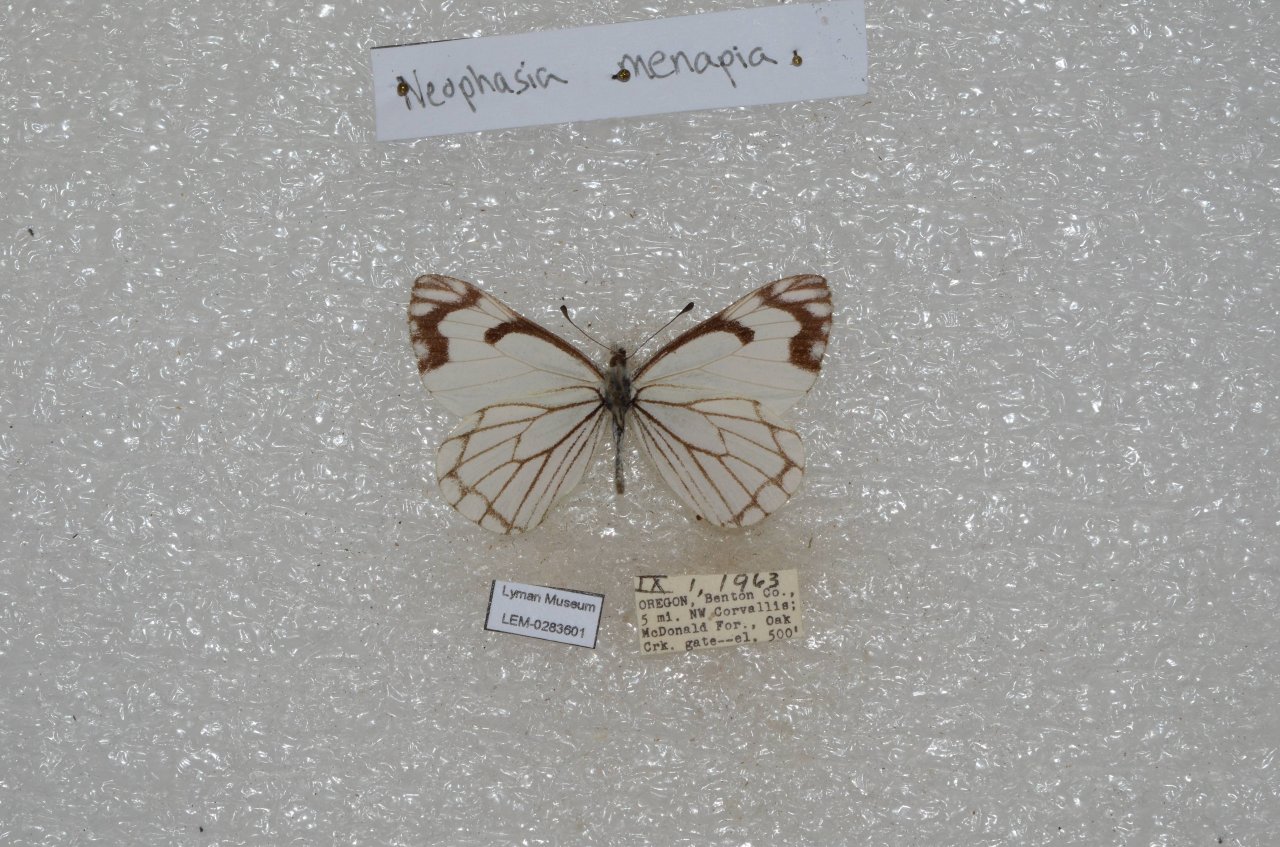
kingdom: Animalia
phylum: Arthropoda
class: Insecta
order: Lepidoptera
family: Pieridae
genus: Neophasia
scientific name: Neophasia menapia
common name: Pine White
